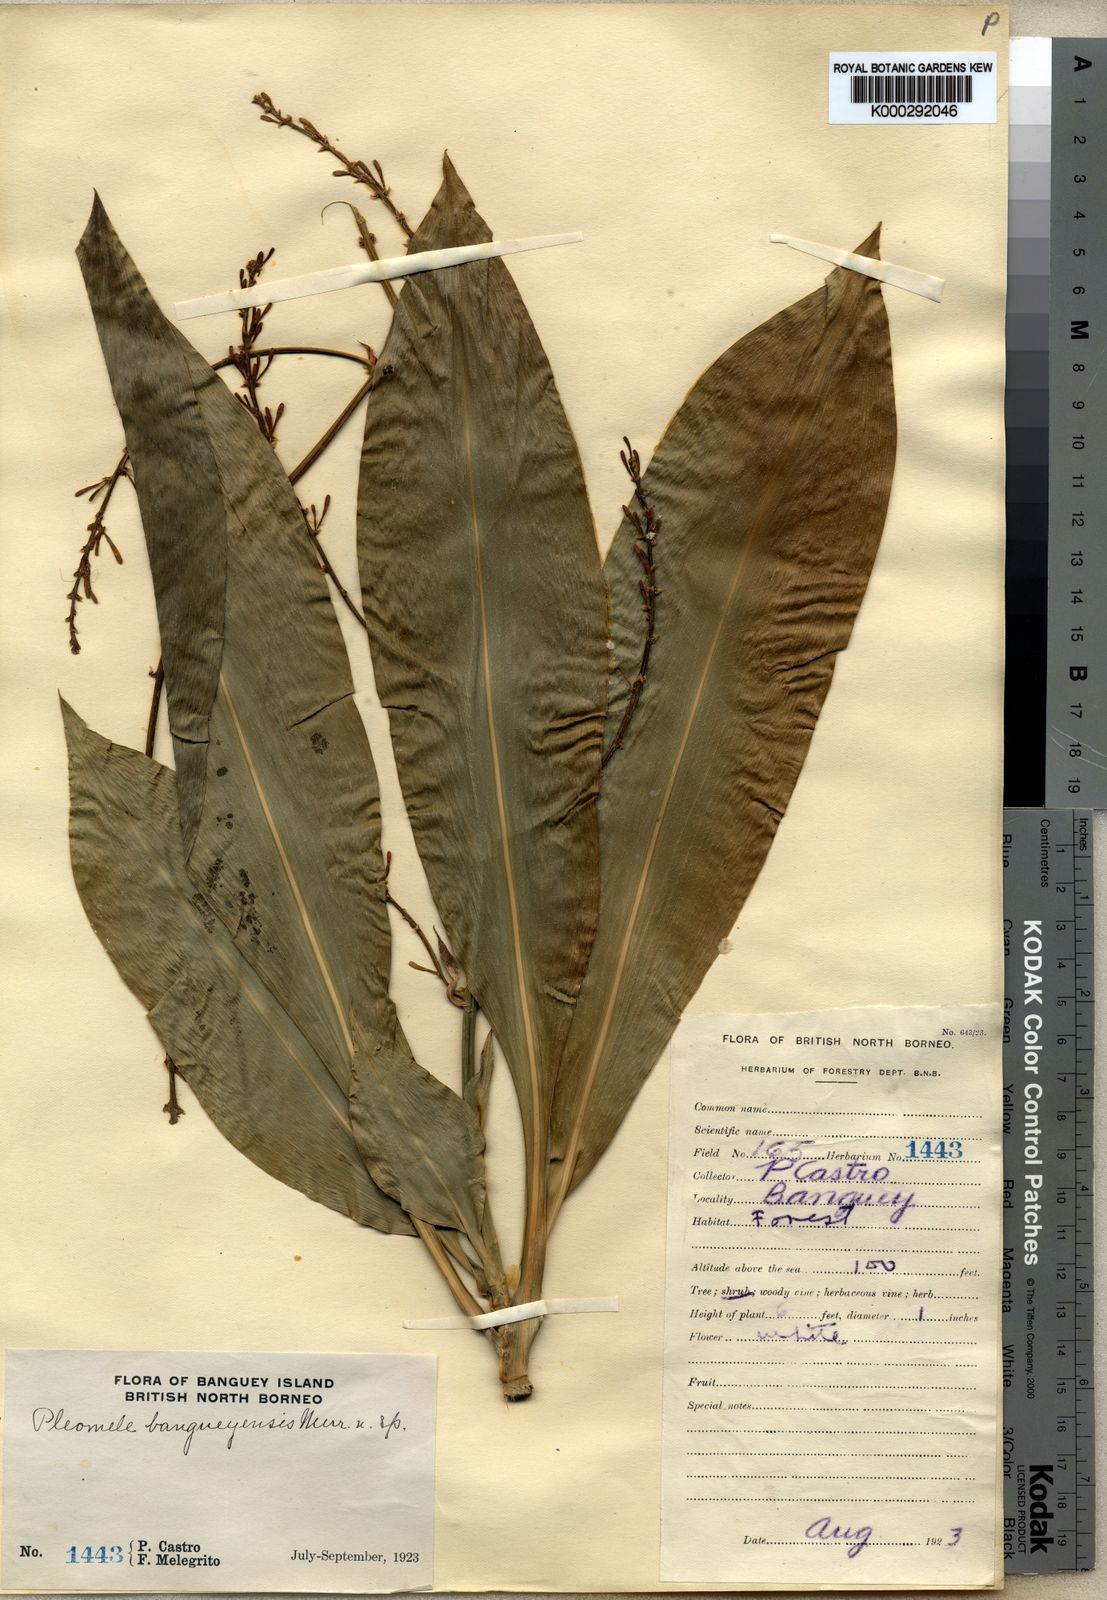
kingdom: Plantae
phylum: Tracheophyta
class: Liliopsida
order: Asparagales
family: Asparagaceae
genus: Dracaena
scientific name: Dracaena
